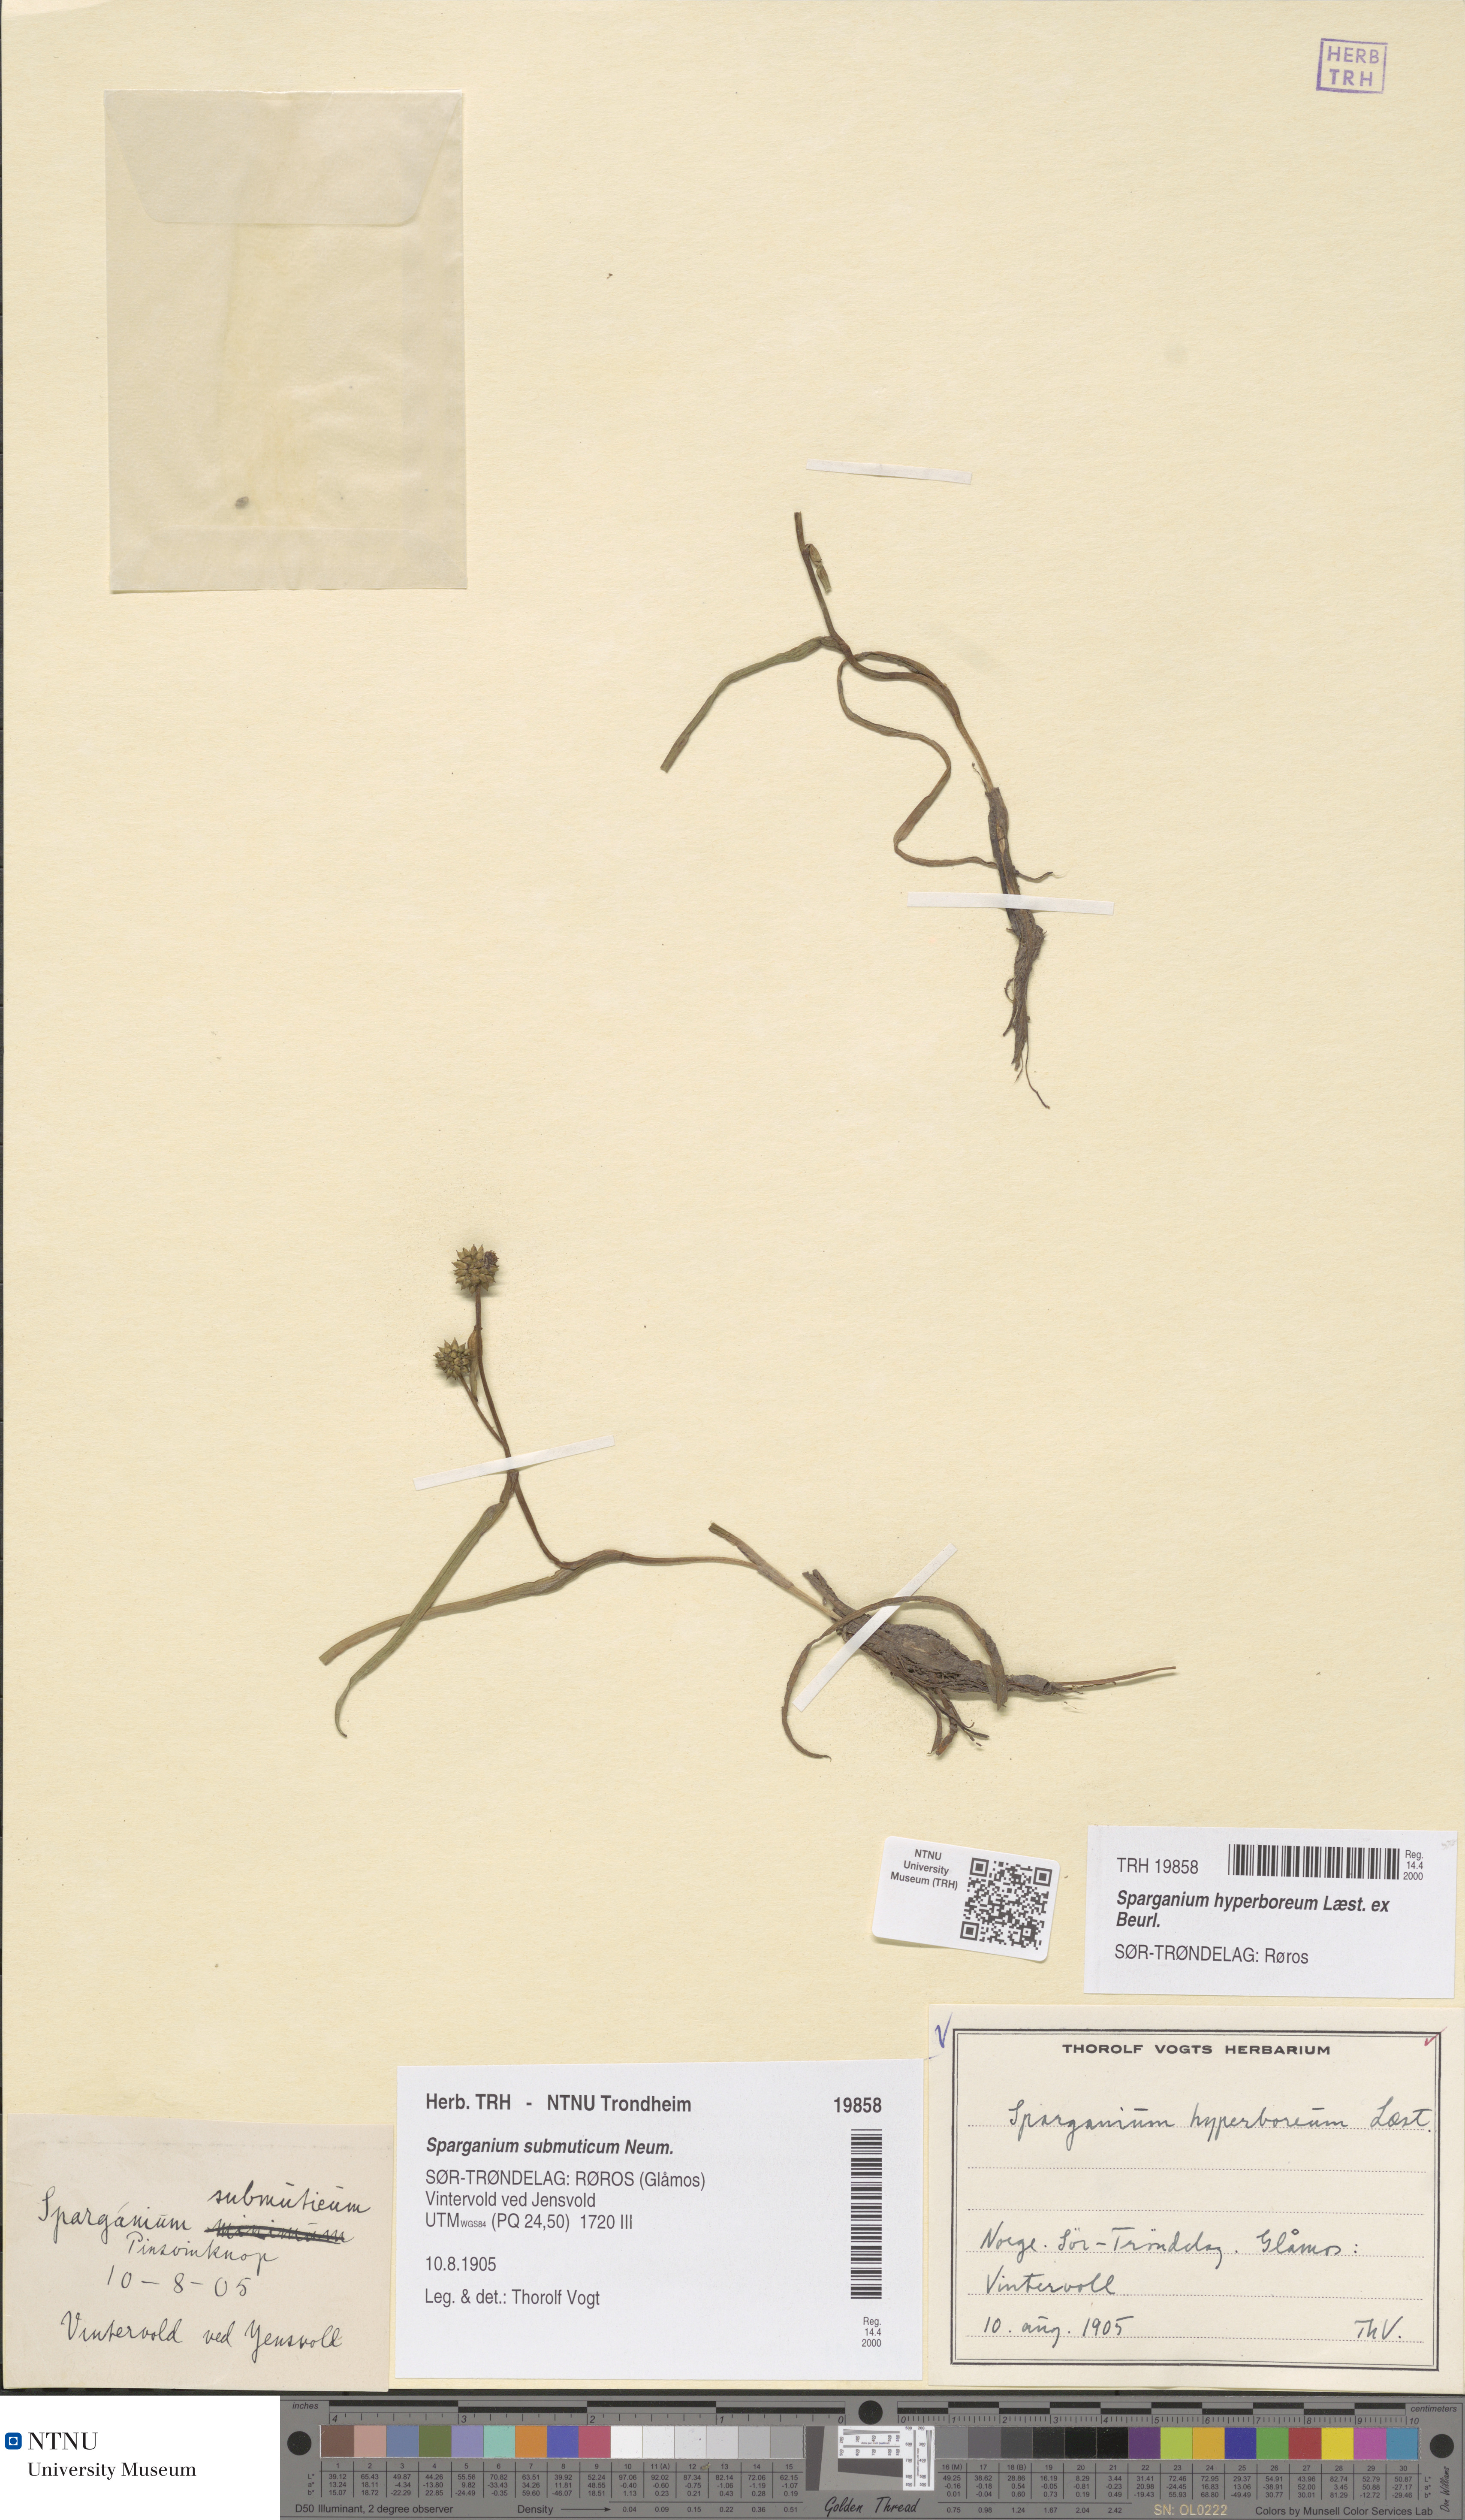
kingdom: Plantae
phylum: Tracheophyta
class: Liliopsida
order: Poales
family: Typhaceae
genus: Sparganium
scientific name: Sparganium hyperboreum
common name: Arctic burreed
